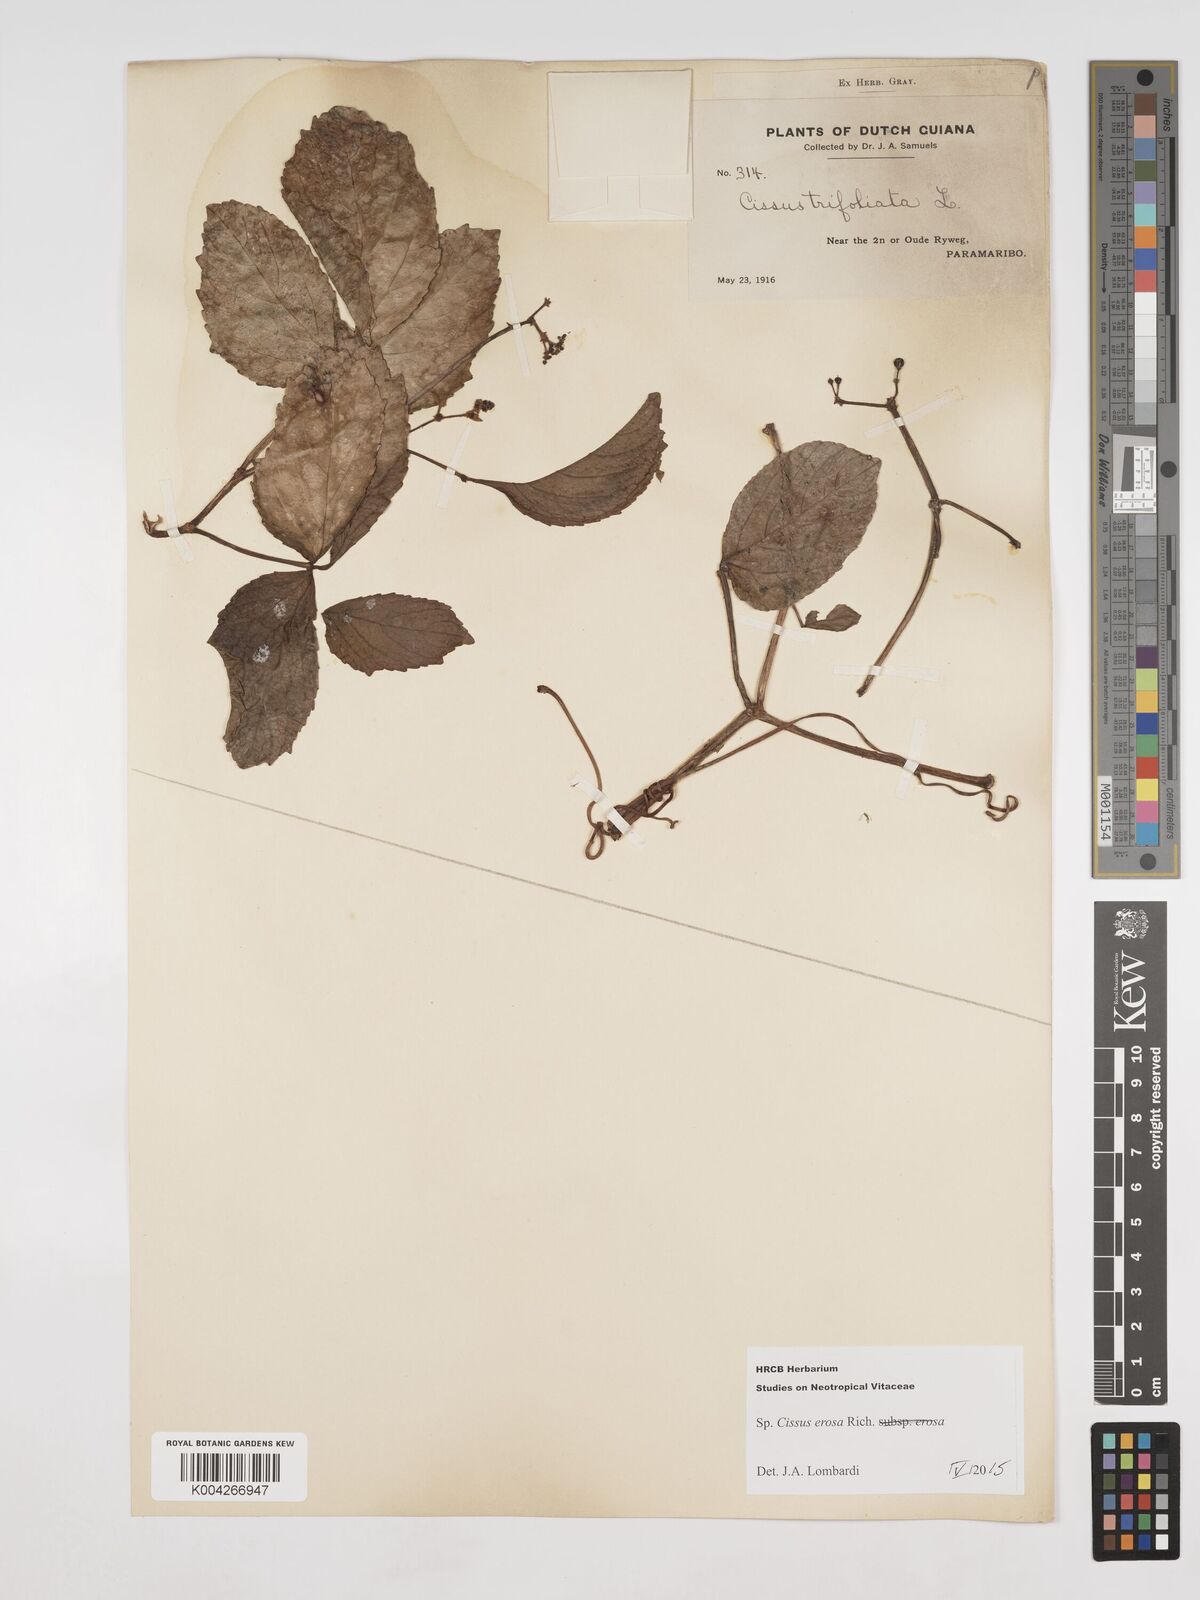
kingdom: Plantae
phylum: Tracheophyta
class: Magnoliopsida
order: Vitales
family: Vitaceae
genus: Cissus
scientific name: Cissus erosa
